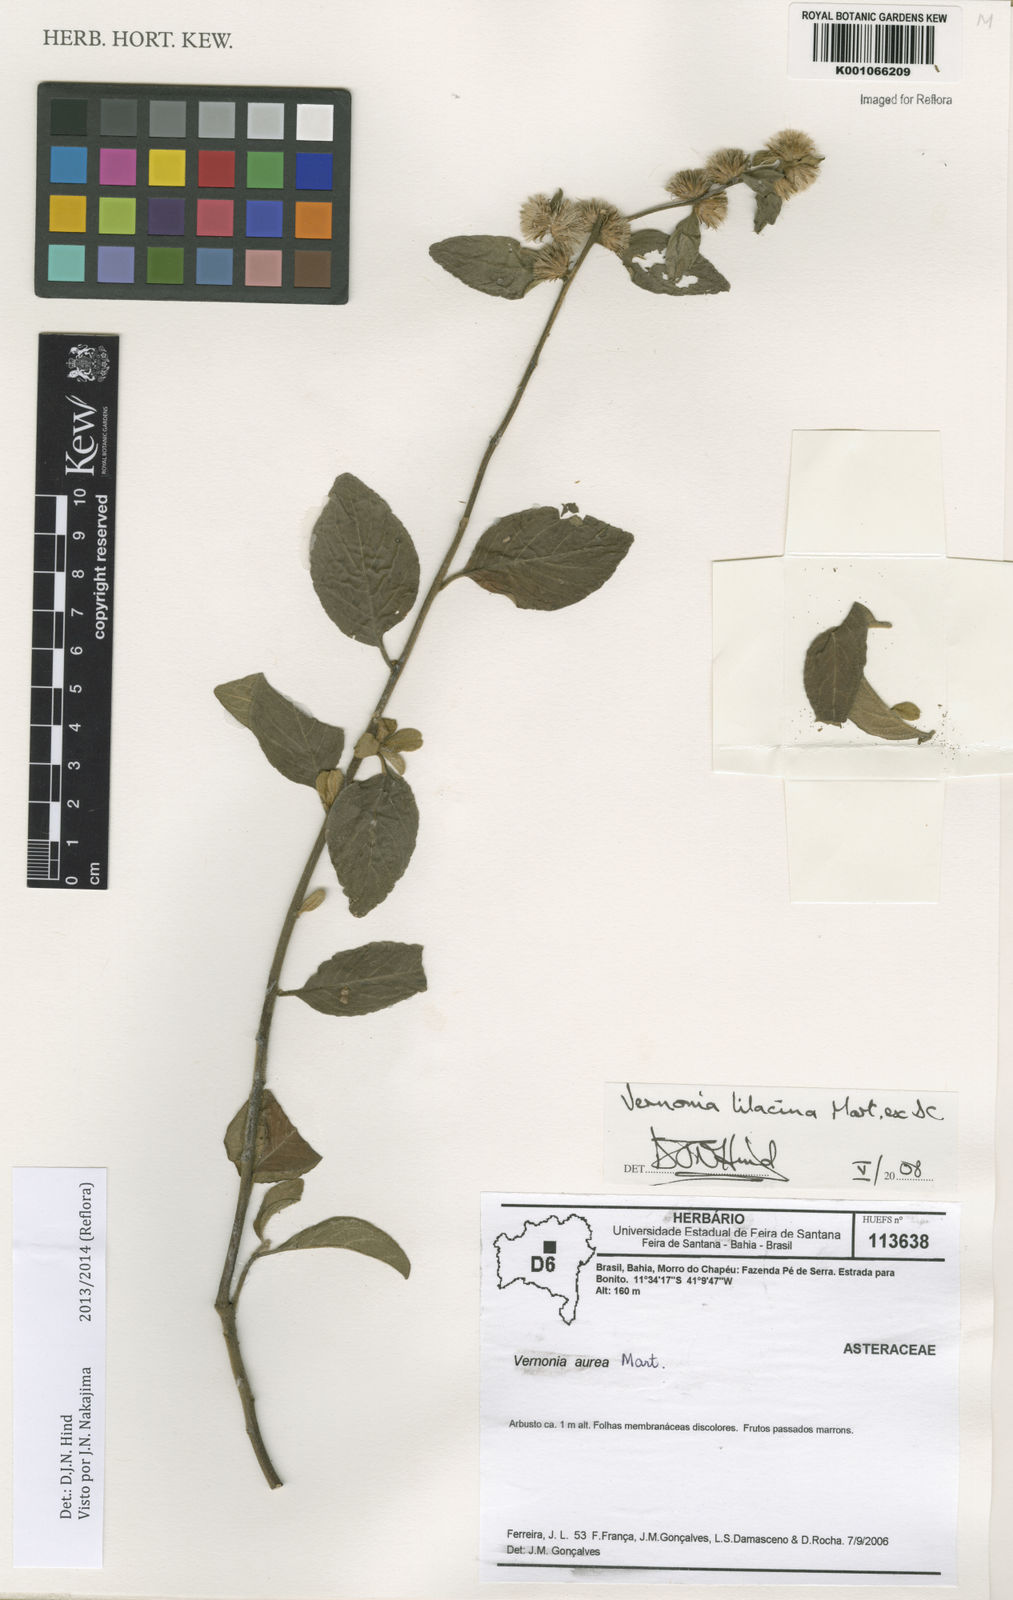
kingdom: Plantae
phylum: Tracheophyta
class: Magnoliopsida
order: Asterales
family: Asteraceae
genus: Lepidaploa
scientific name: Lepidaploa lilacina
